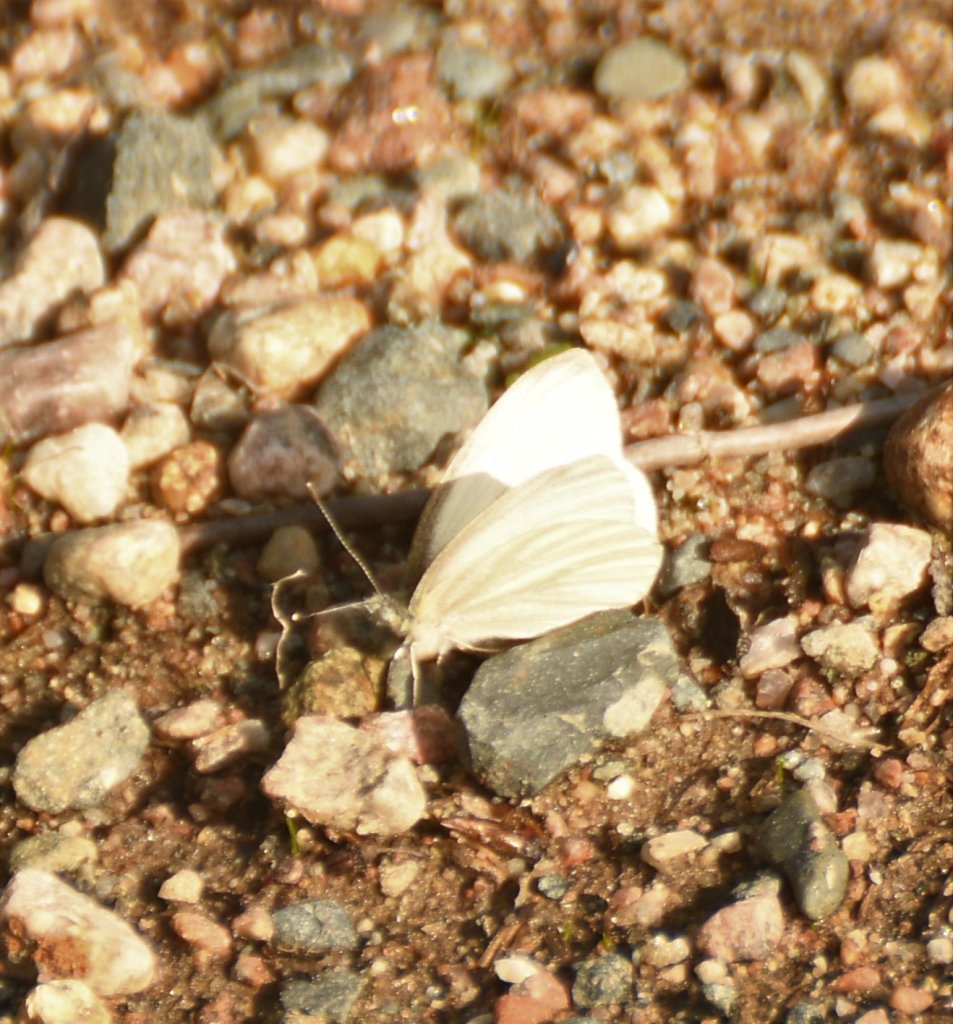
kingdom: Animalia
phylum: Arthropoda
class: Insecta
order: Lepidoptera
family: Pieridae
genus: Pieris
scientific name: Pieris virginiensis
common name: West Virginia White
